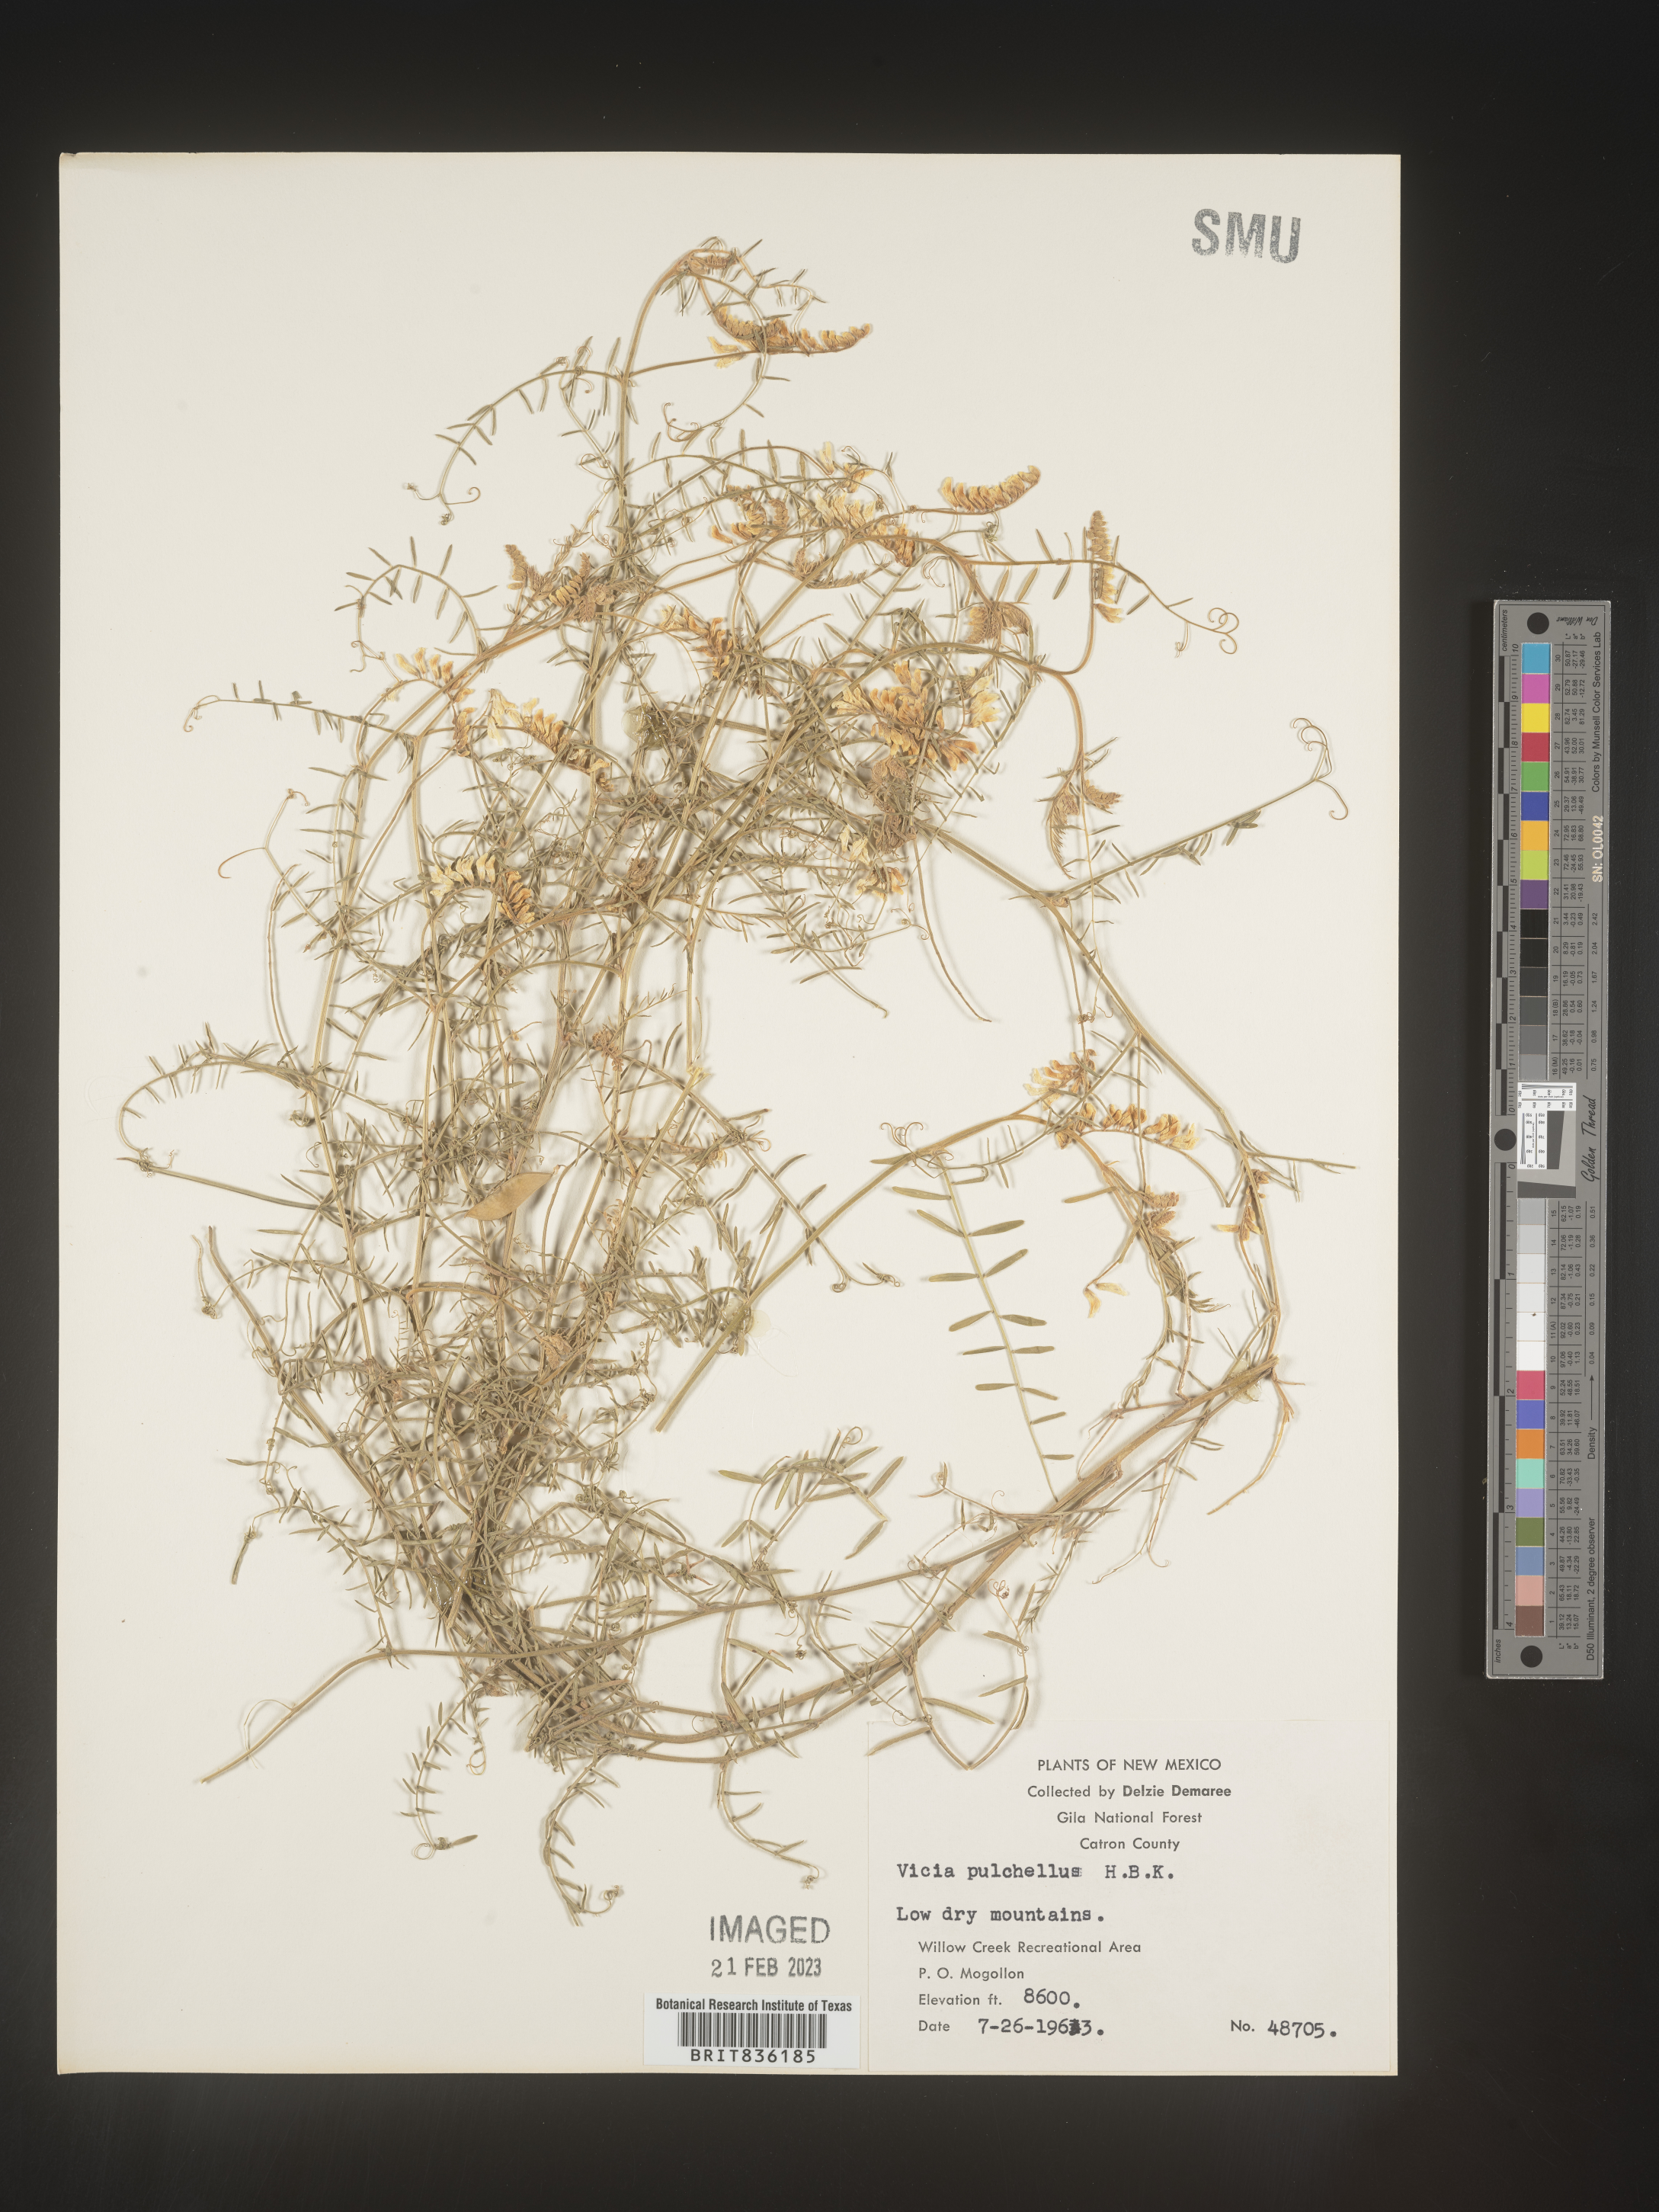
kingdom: Plantae
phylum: Tracheophyta
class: Magnoliopsida
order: Fabales
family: Fabaceae
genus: Vicia
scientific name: Vicia
